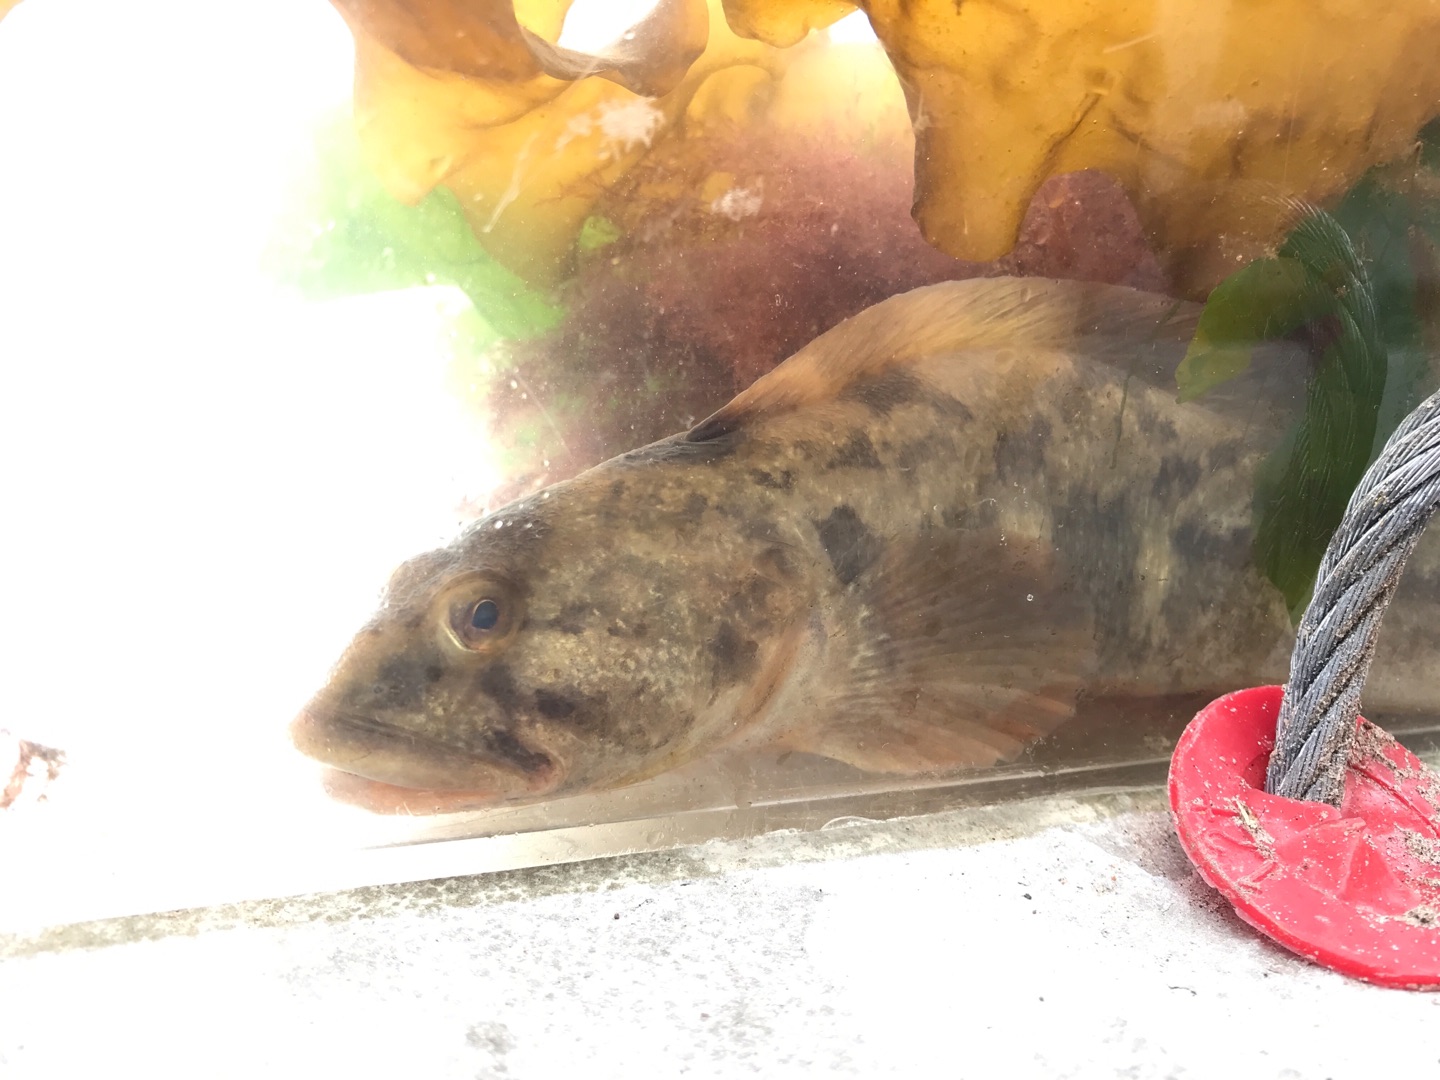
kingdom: Animalia
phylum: Chordata
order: Perciformes
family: Zoarcidae
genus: Zoarces
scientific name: Zoarces viviparus
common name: Ålekvabbe
